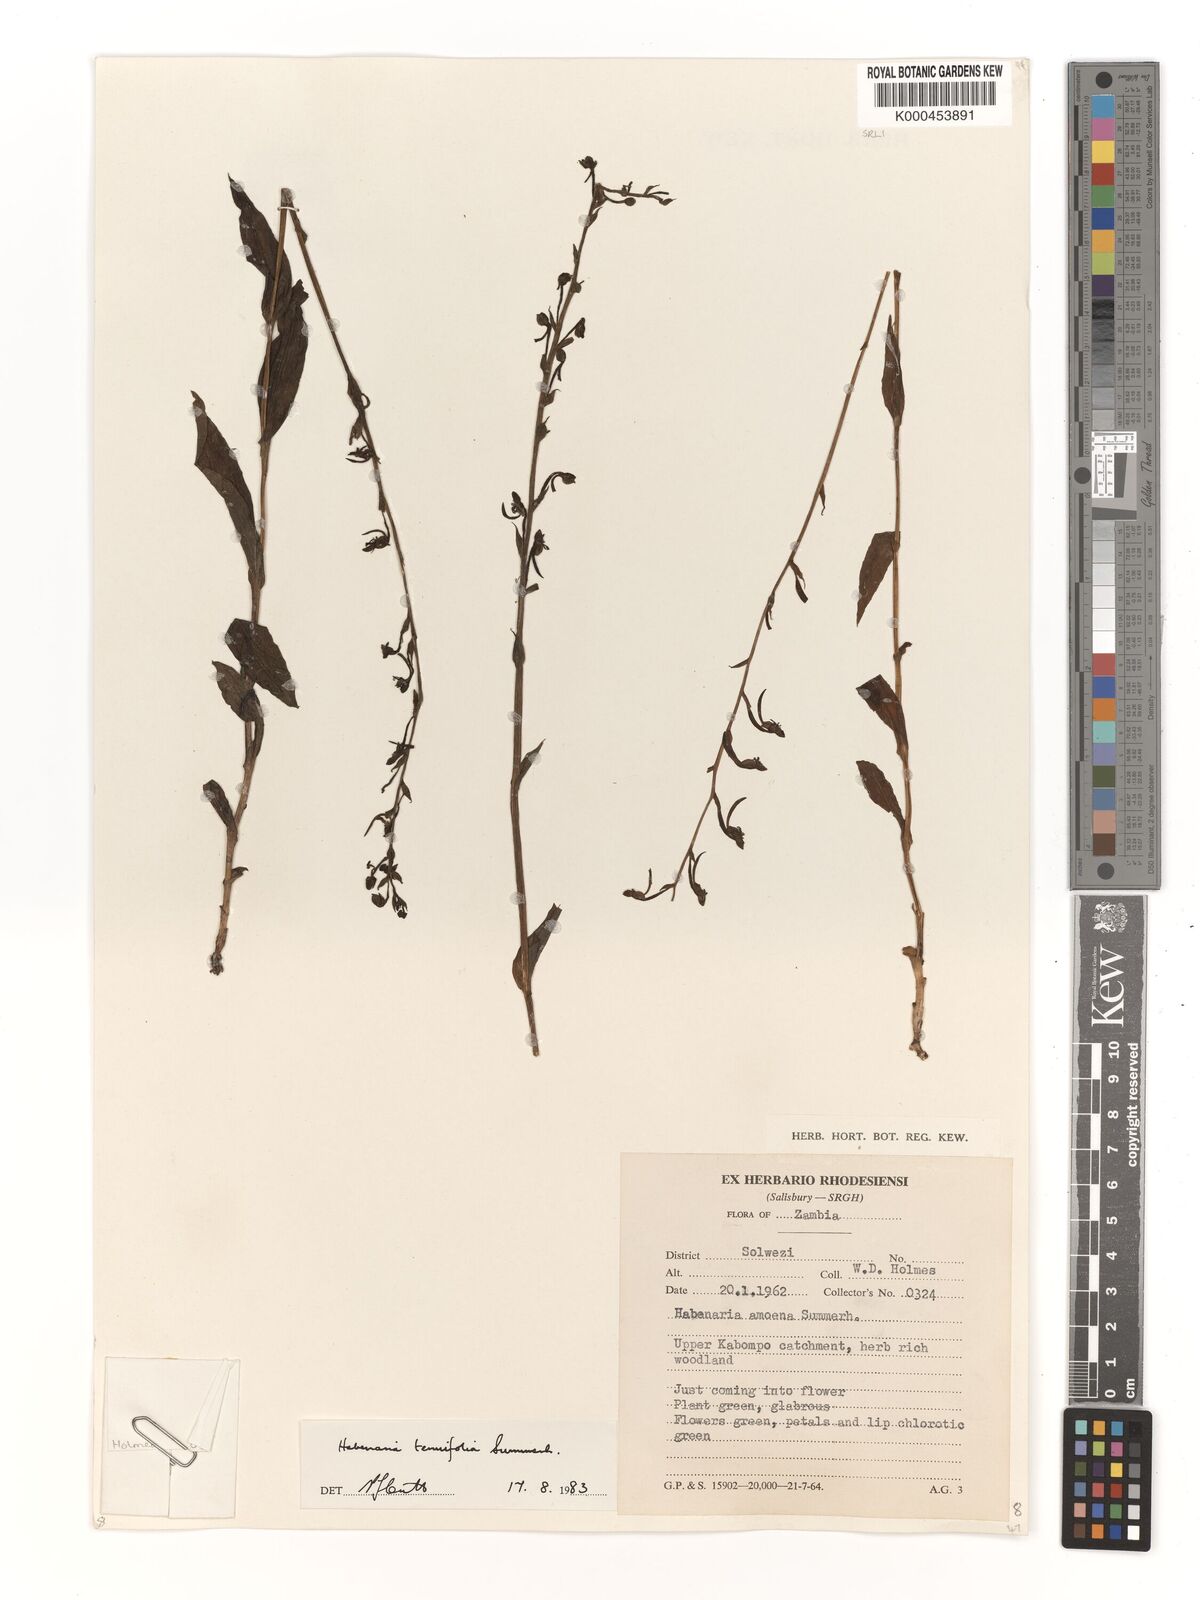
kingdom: Plantae
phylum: Tracheophyta
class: Liliopsida
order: Asparagales
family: Orchidaceae
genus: Habenaria
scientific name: Habenaria supplicans
